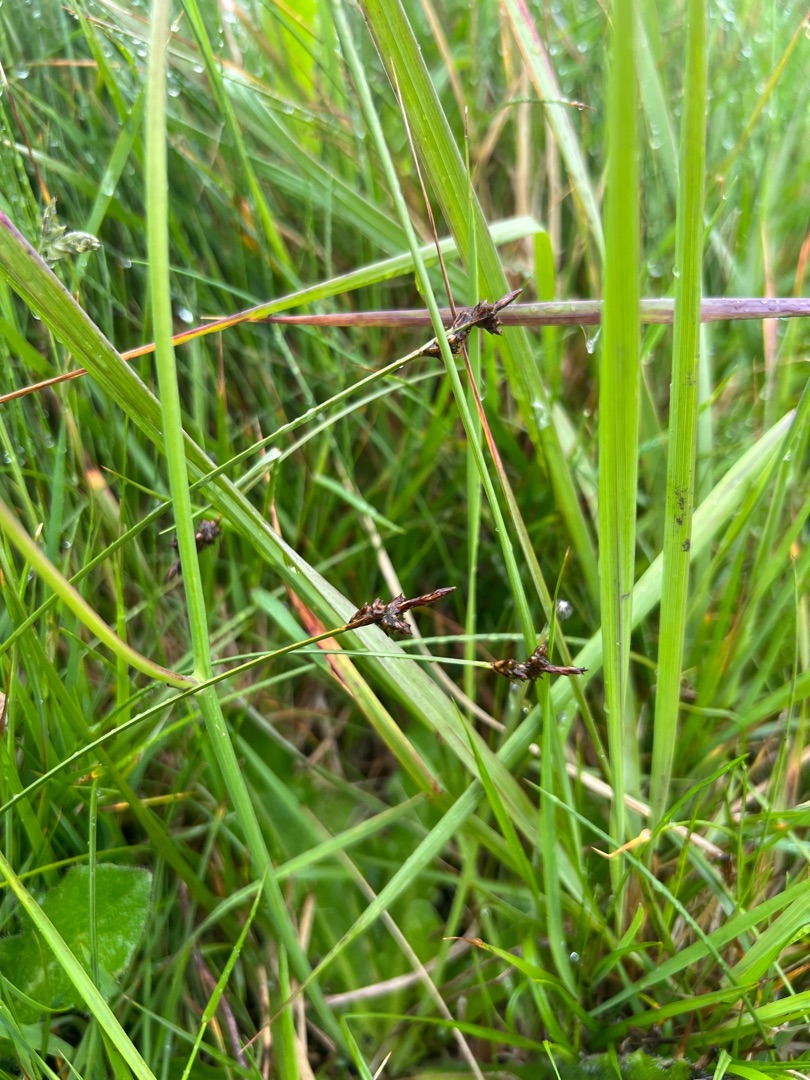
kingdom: Plantae
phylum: Tracheophyta
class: Liliopsida
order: Poales
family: Cyperaceae
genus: Carex
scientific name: Carex pilulifera
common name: Pille-star
